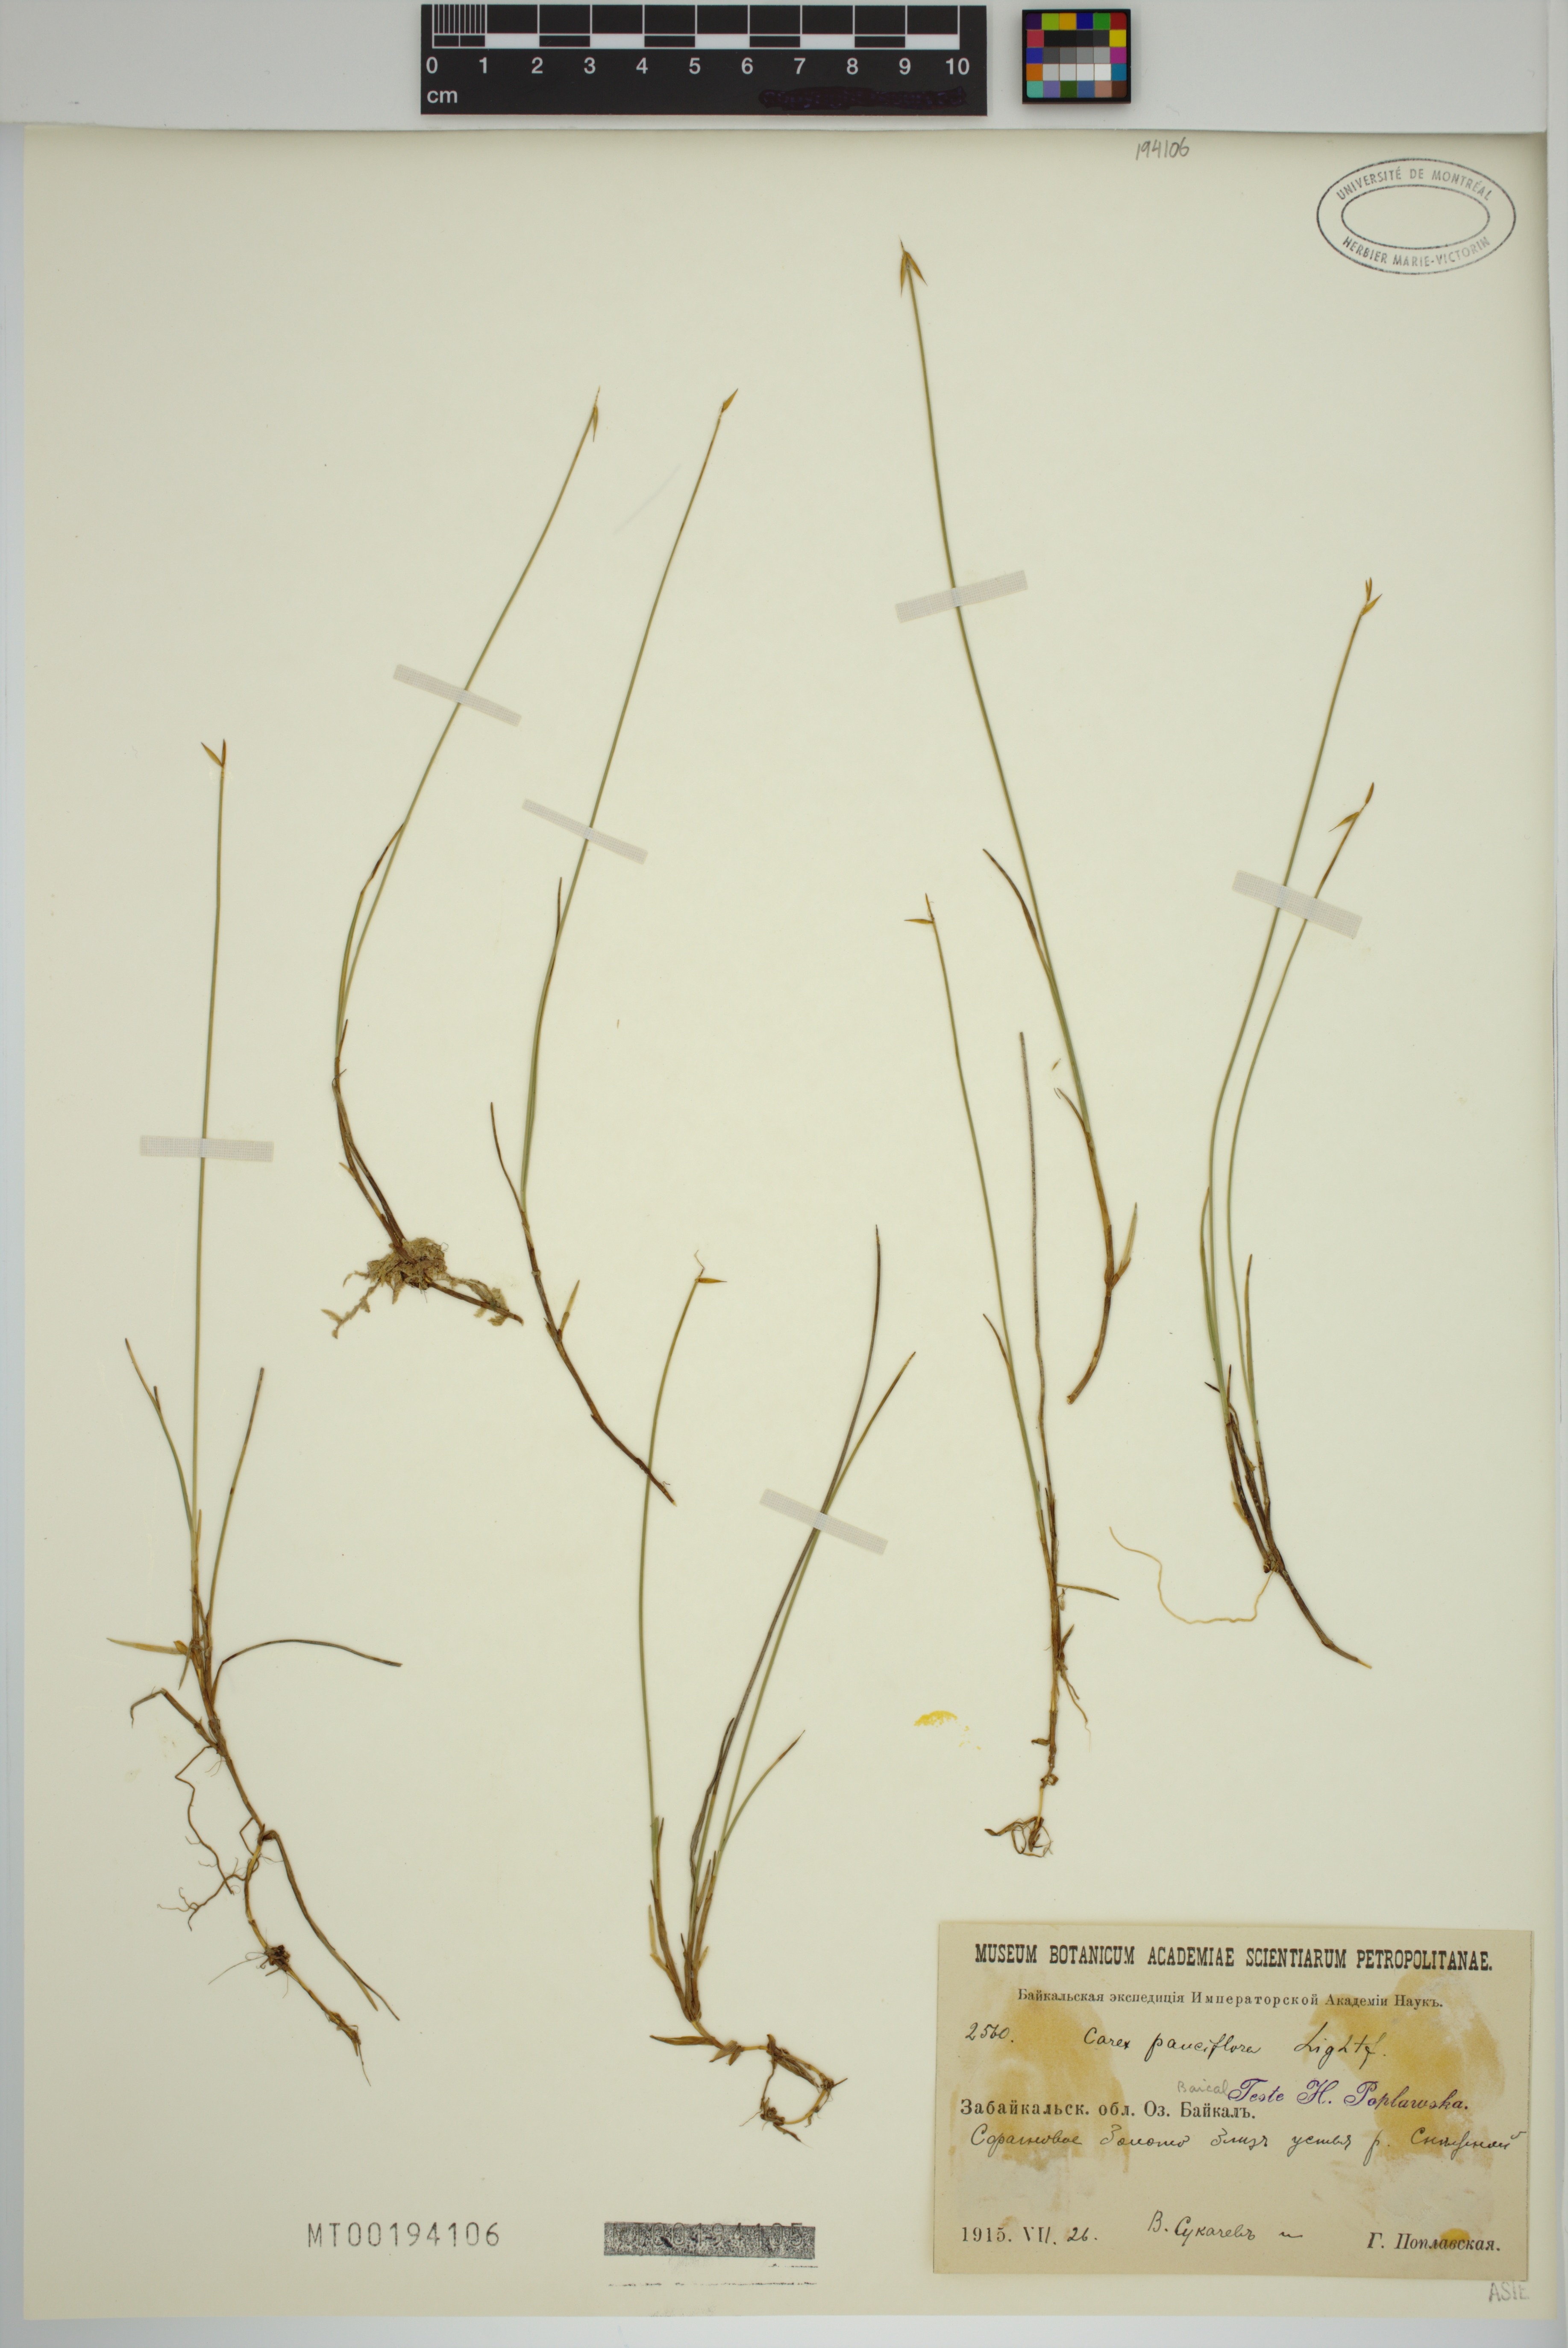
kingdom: Plantae
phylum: Tracheophyta
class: Liliopsida
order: Poales
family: Cyperaceae
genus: Carex
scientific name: Carex pauciflora
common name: Few-flowered sedge
